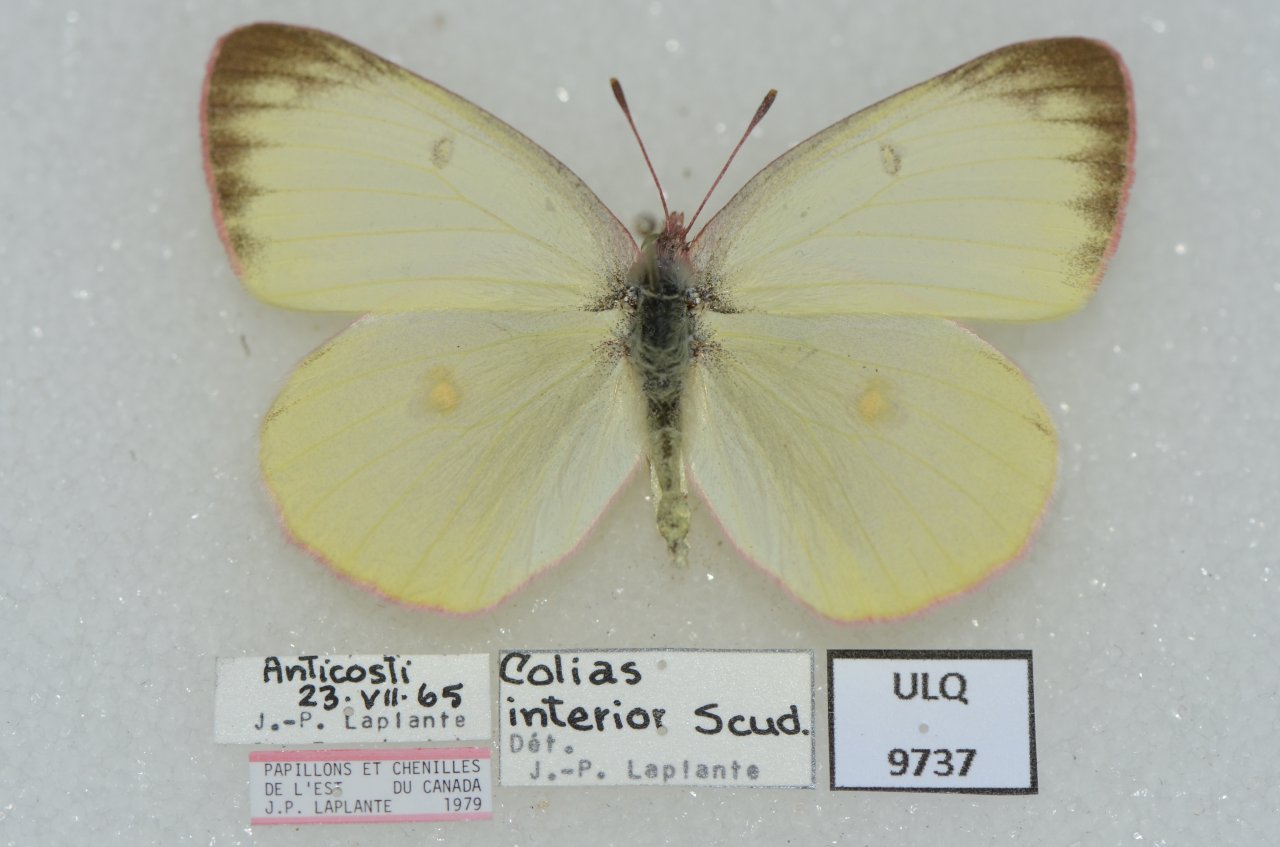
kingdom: Animalia
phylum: Arthropoda
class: Insecta
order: Lepidoptera
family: Pieridae
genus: Colias
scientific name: Colias interior
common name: Pink-edged Sulphur
